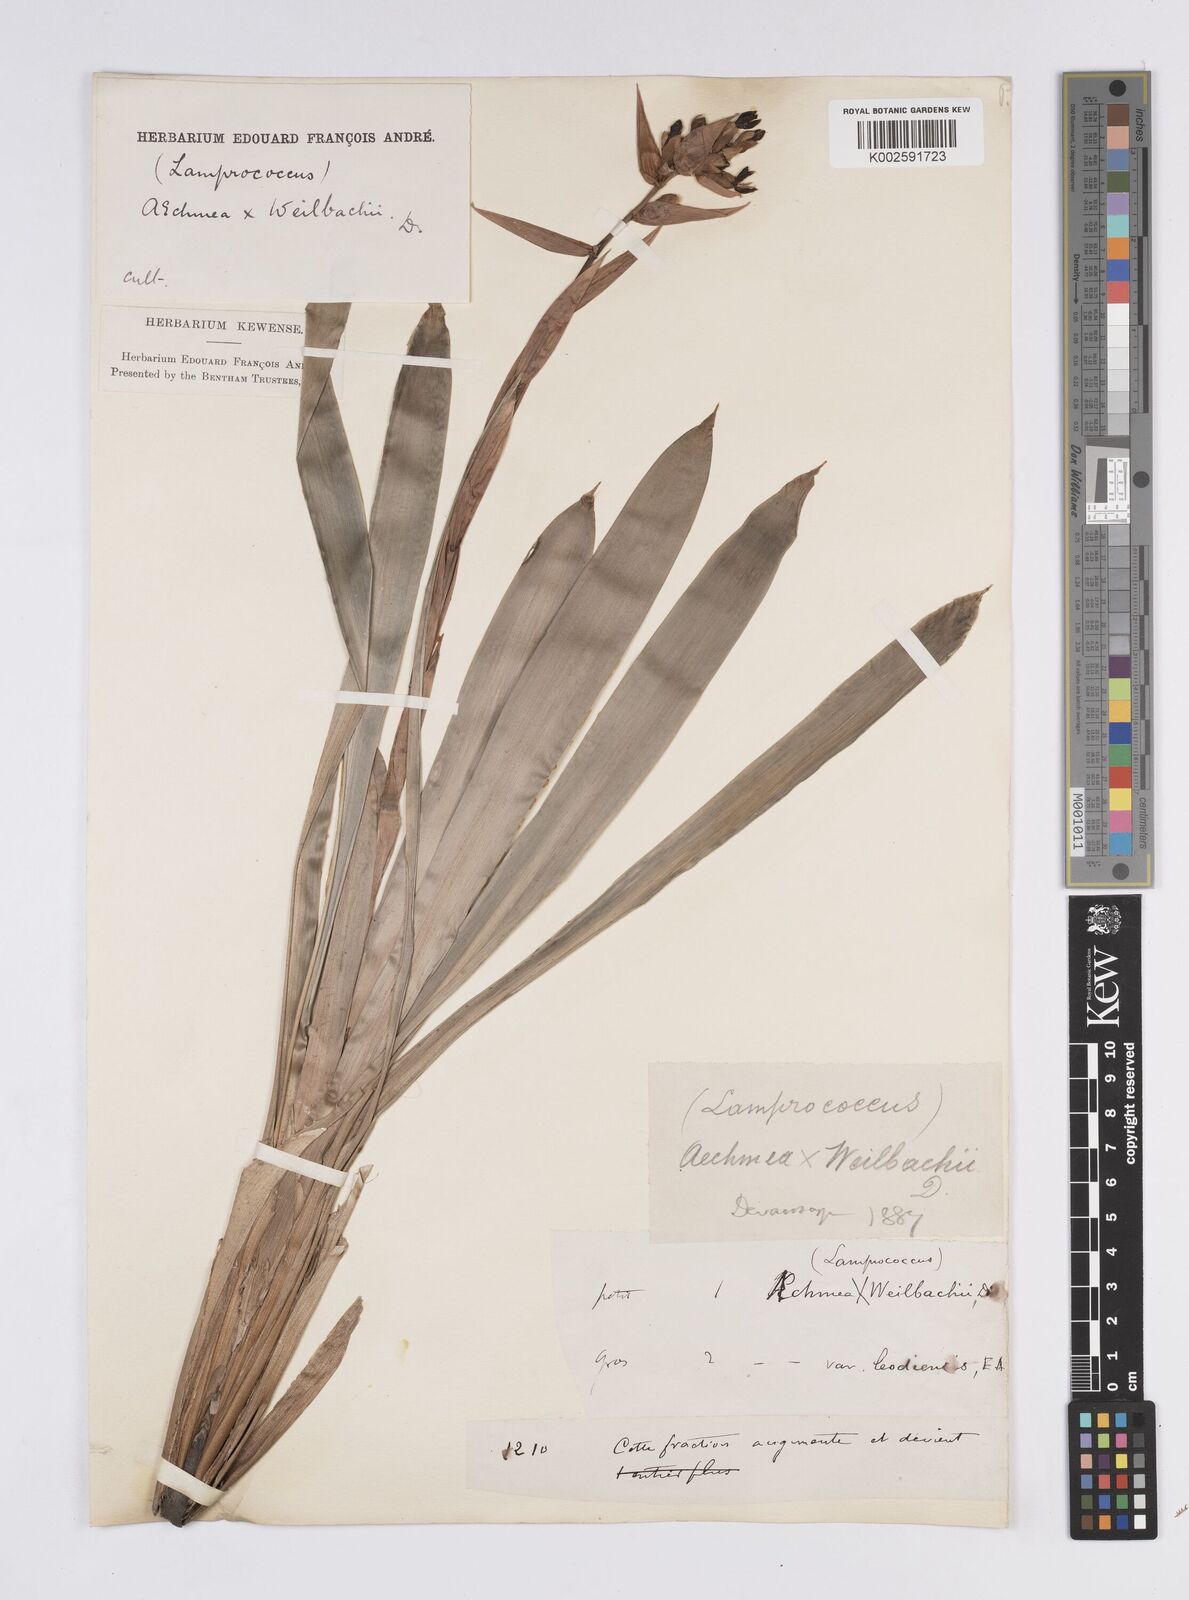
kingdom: Plantae
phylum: Tracheophyta
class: Liliopsida
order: Poales
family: Bromeliaceae
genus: Aechmea
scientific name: Aechmea weilbachii
